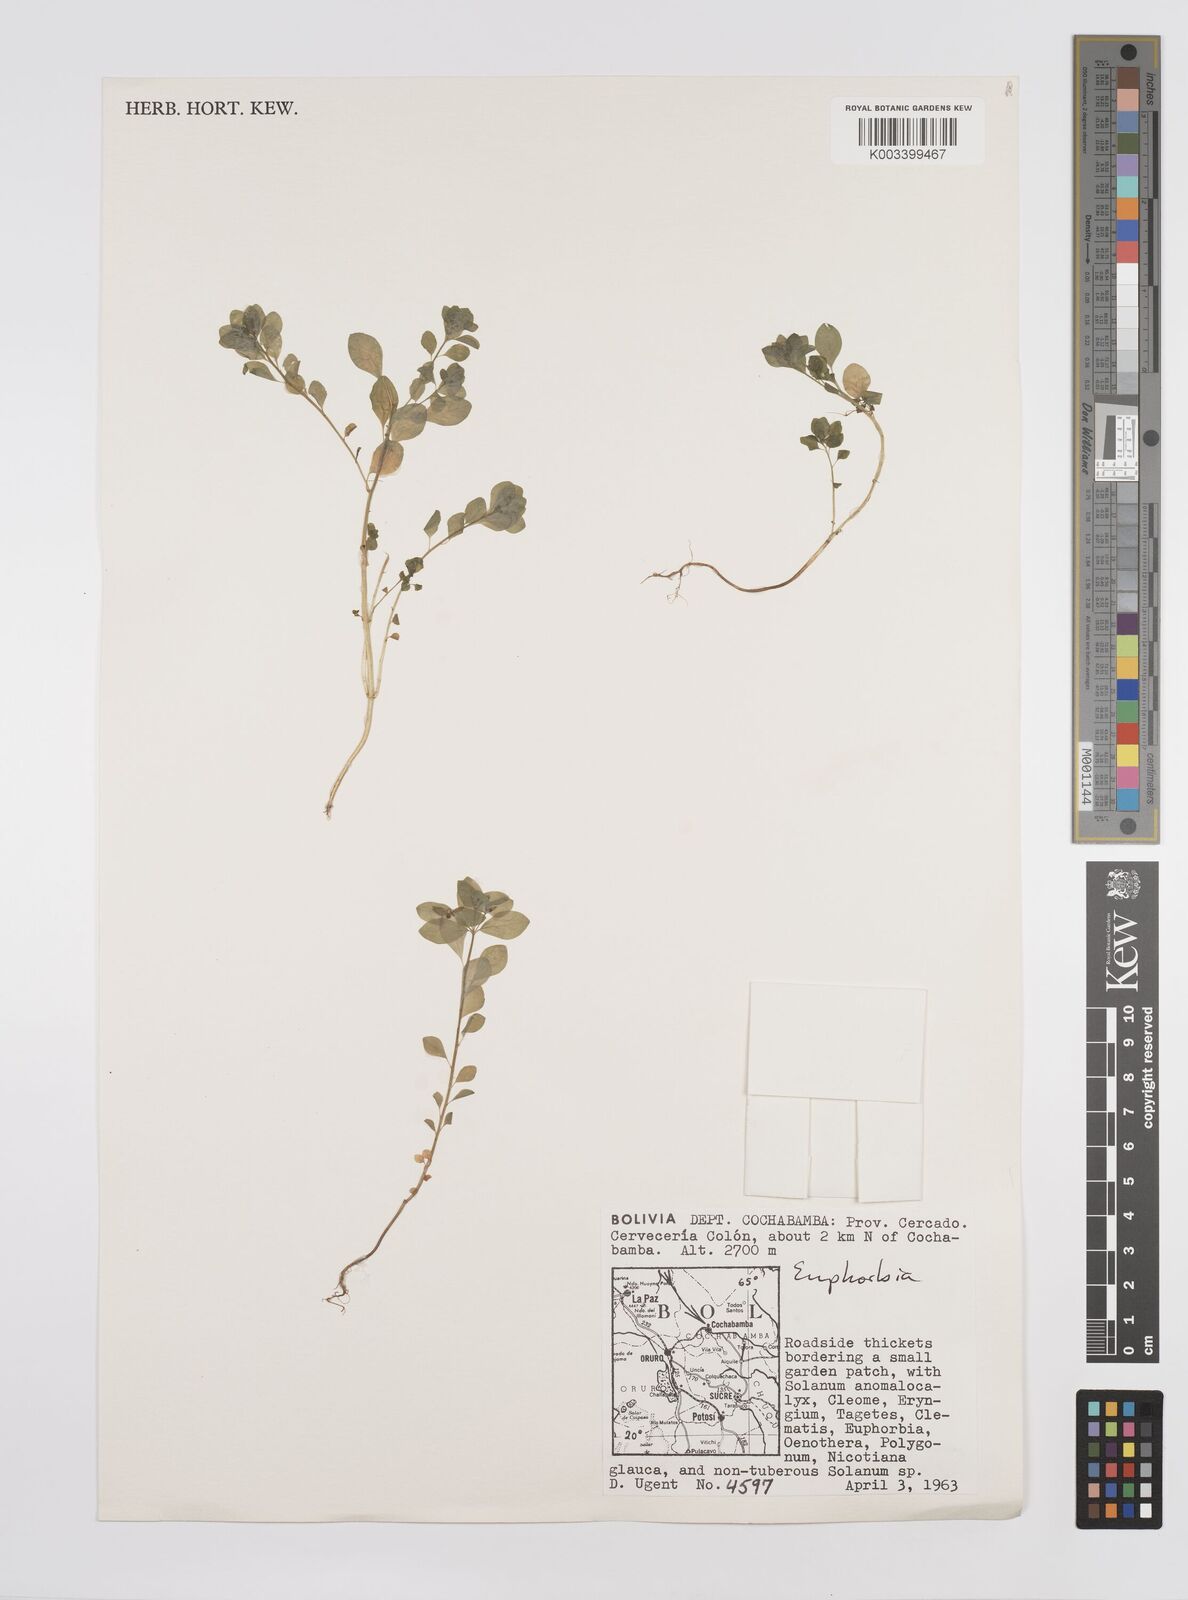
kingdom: Plantae
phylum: Tracheophyta
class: Magnoliopsida
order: Malpighiales
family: Euphorbiaceae
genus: Euphorbia
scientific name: Euphorbia
